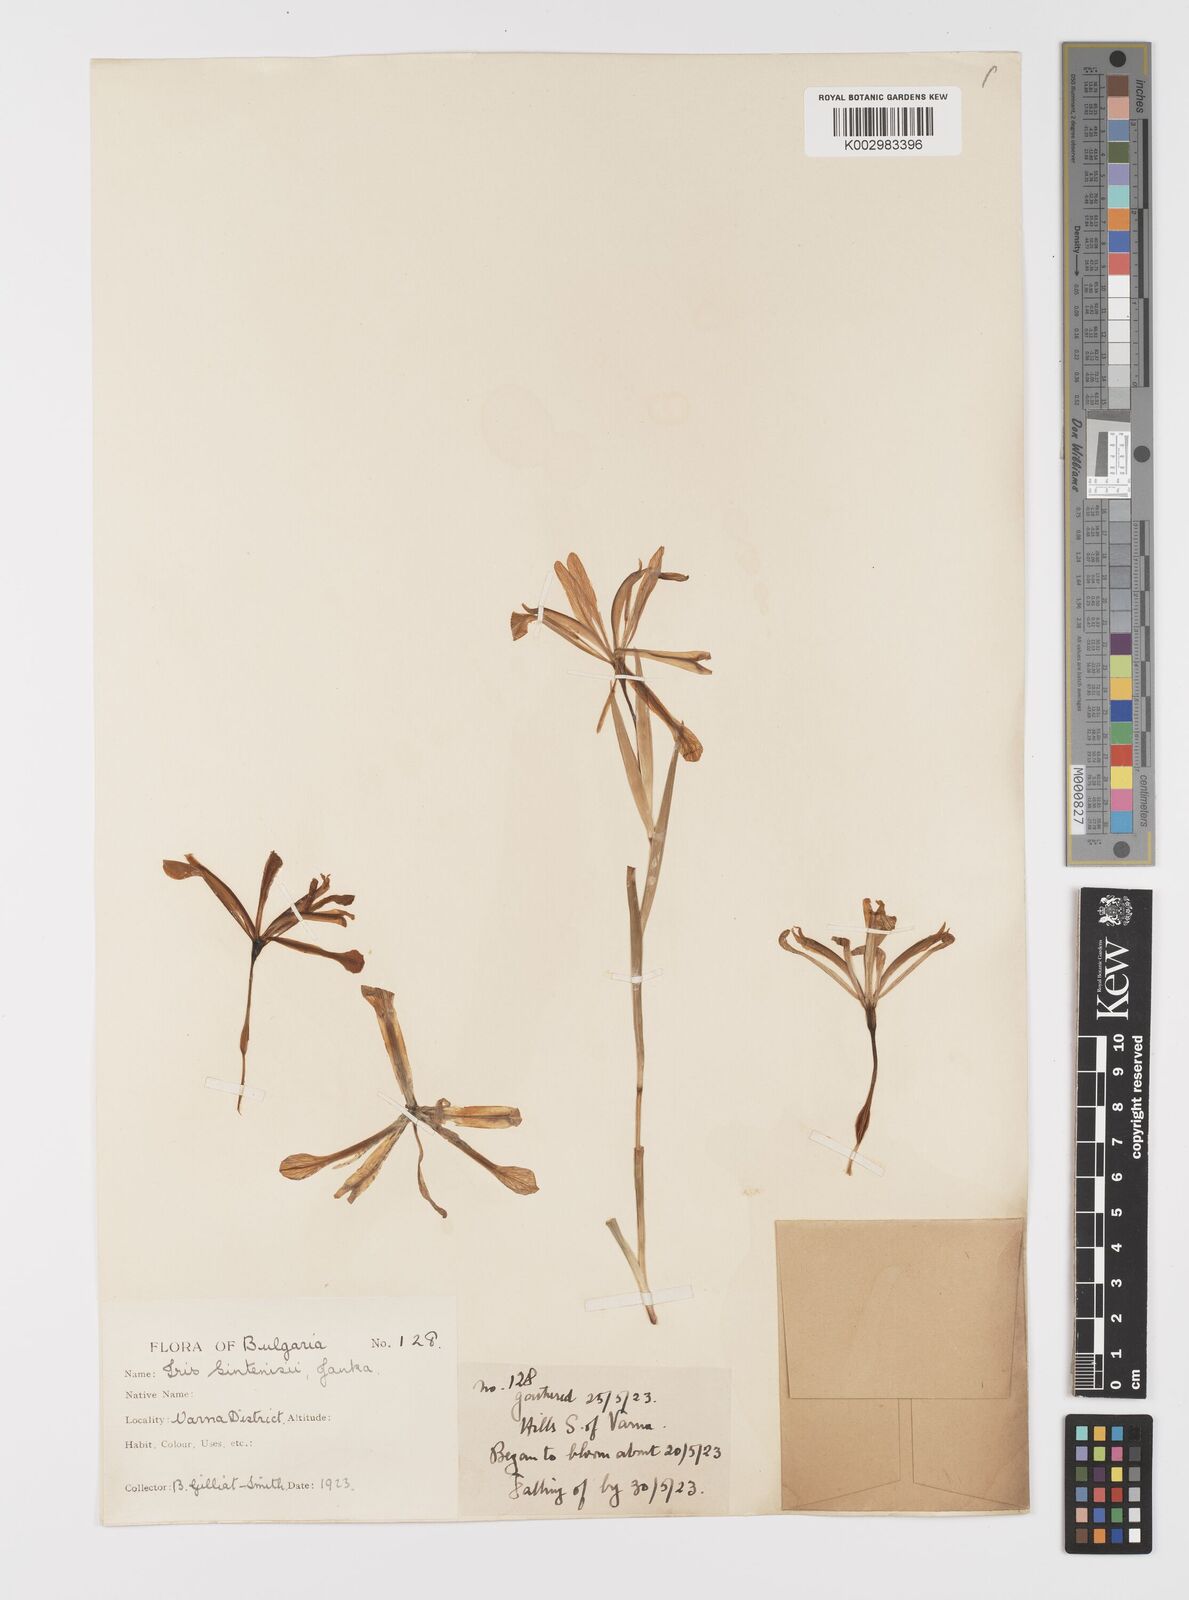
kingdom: Plantae
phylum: Tracheophyta
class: Liliopsida
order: Asparagales
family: Iridaceae
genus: Iris
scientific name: Iris sintenisii
